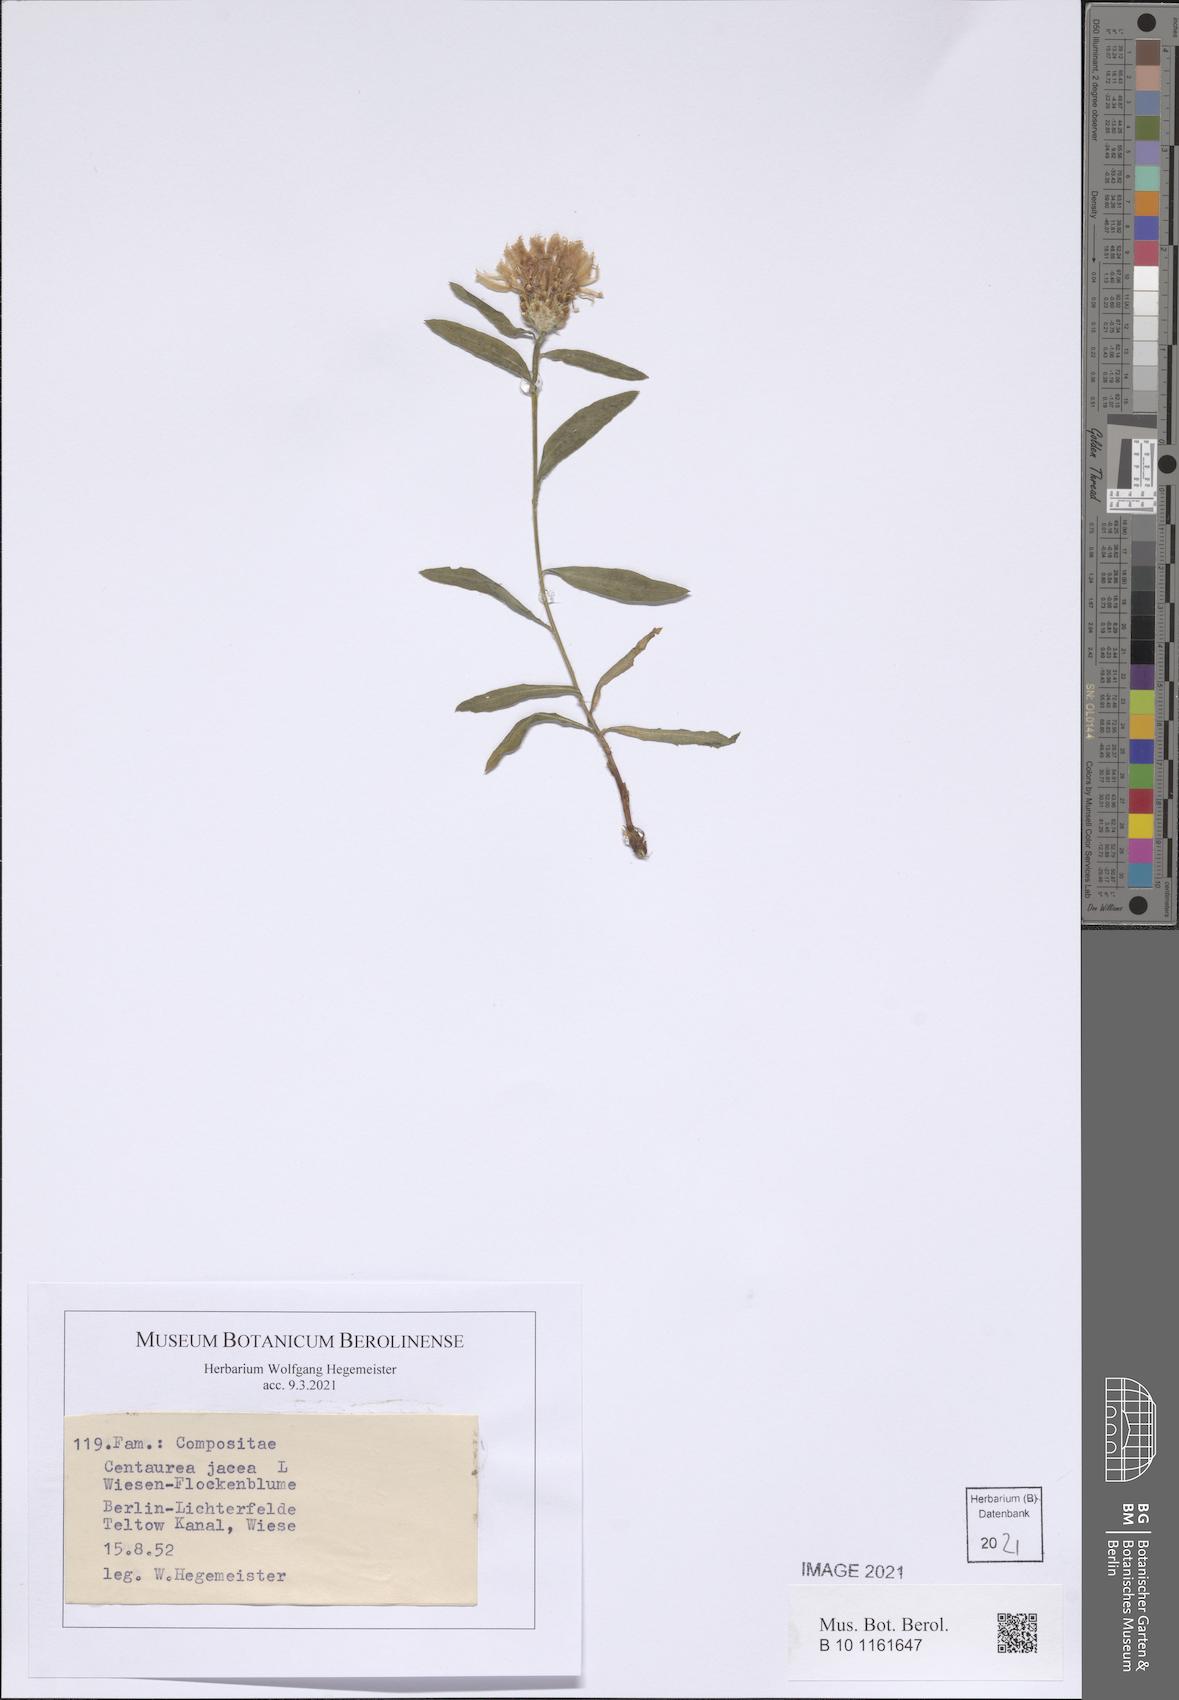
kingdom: Plantae
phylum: Tracheophyta
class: Magnoliopsida
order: Asterales
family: Asteraceae
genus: Centaurea
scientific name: Centaurea jacea
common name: Brown knapweed
